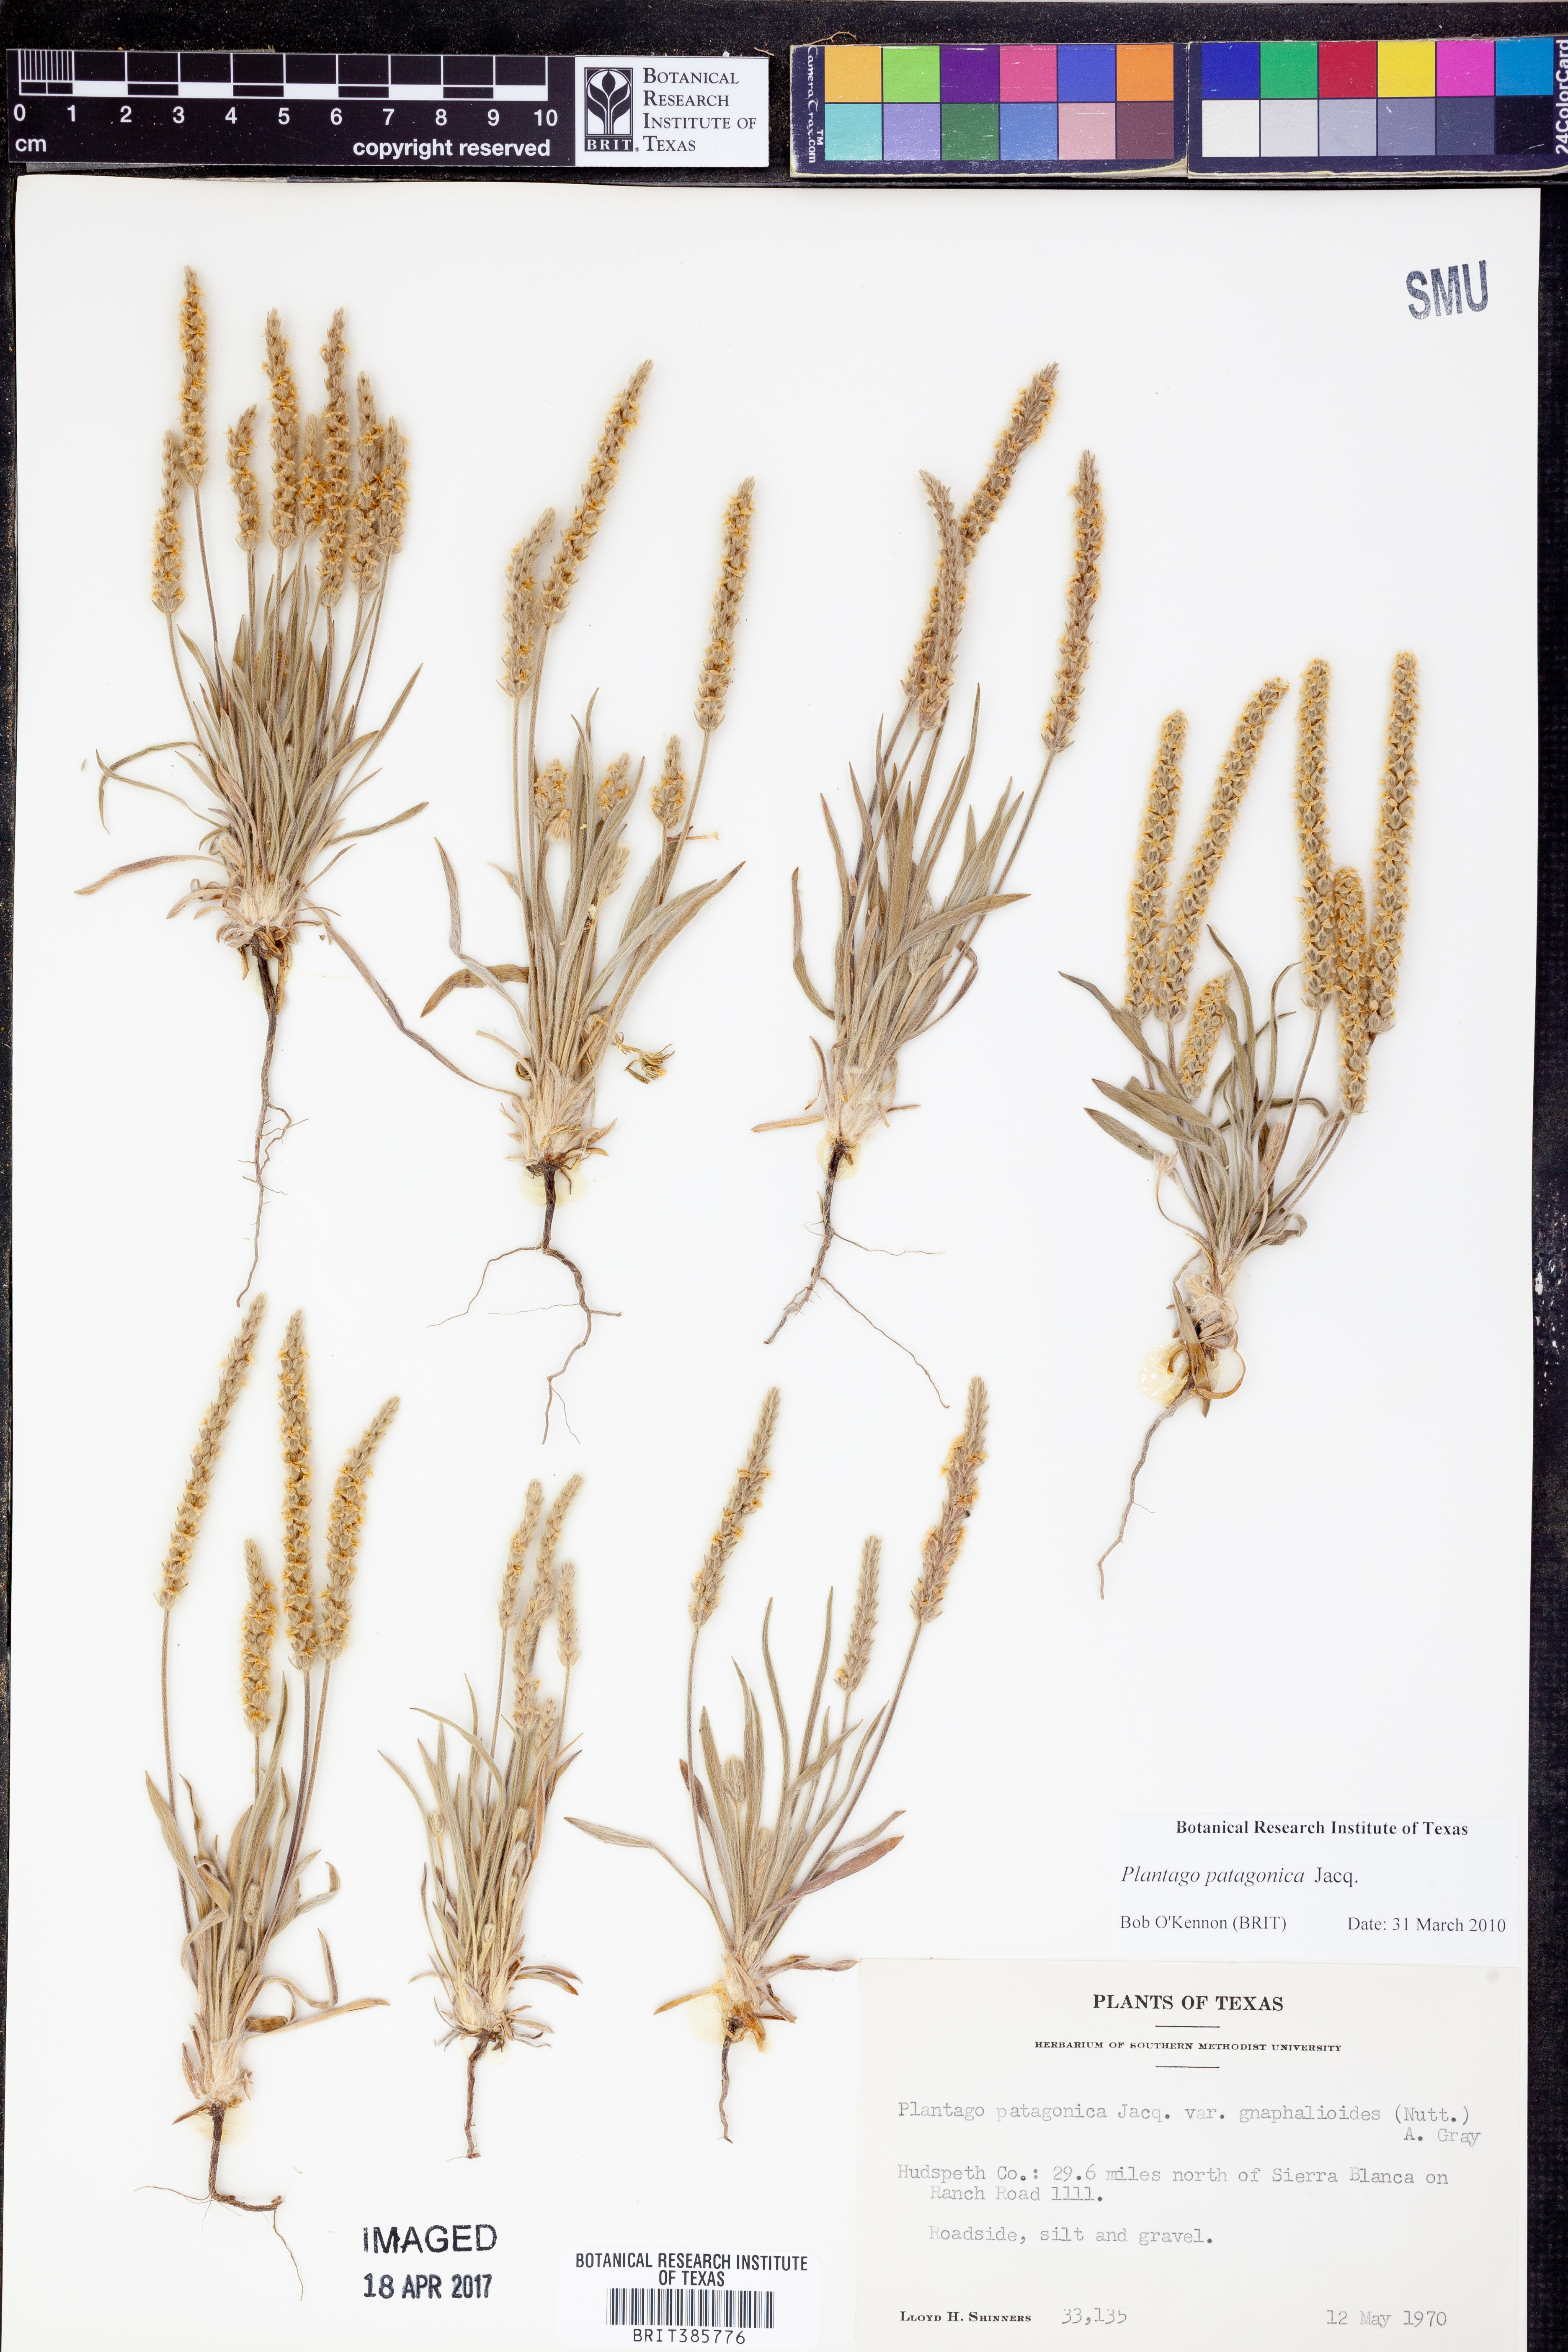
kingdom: Plantae
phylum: Tracheophyta
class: Magnoliopsida
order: Lamiales
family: Plantaginaceae
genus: Plantago
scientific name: Plantago patagonica
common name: Patagonia indian-wheat
